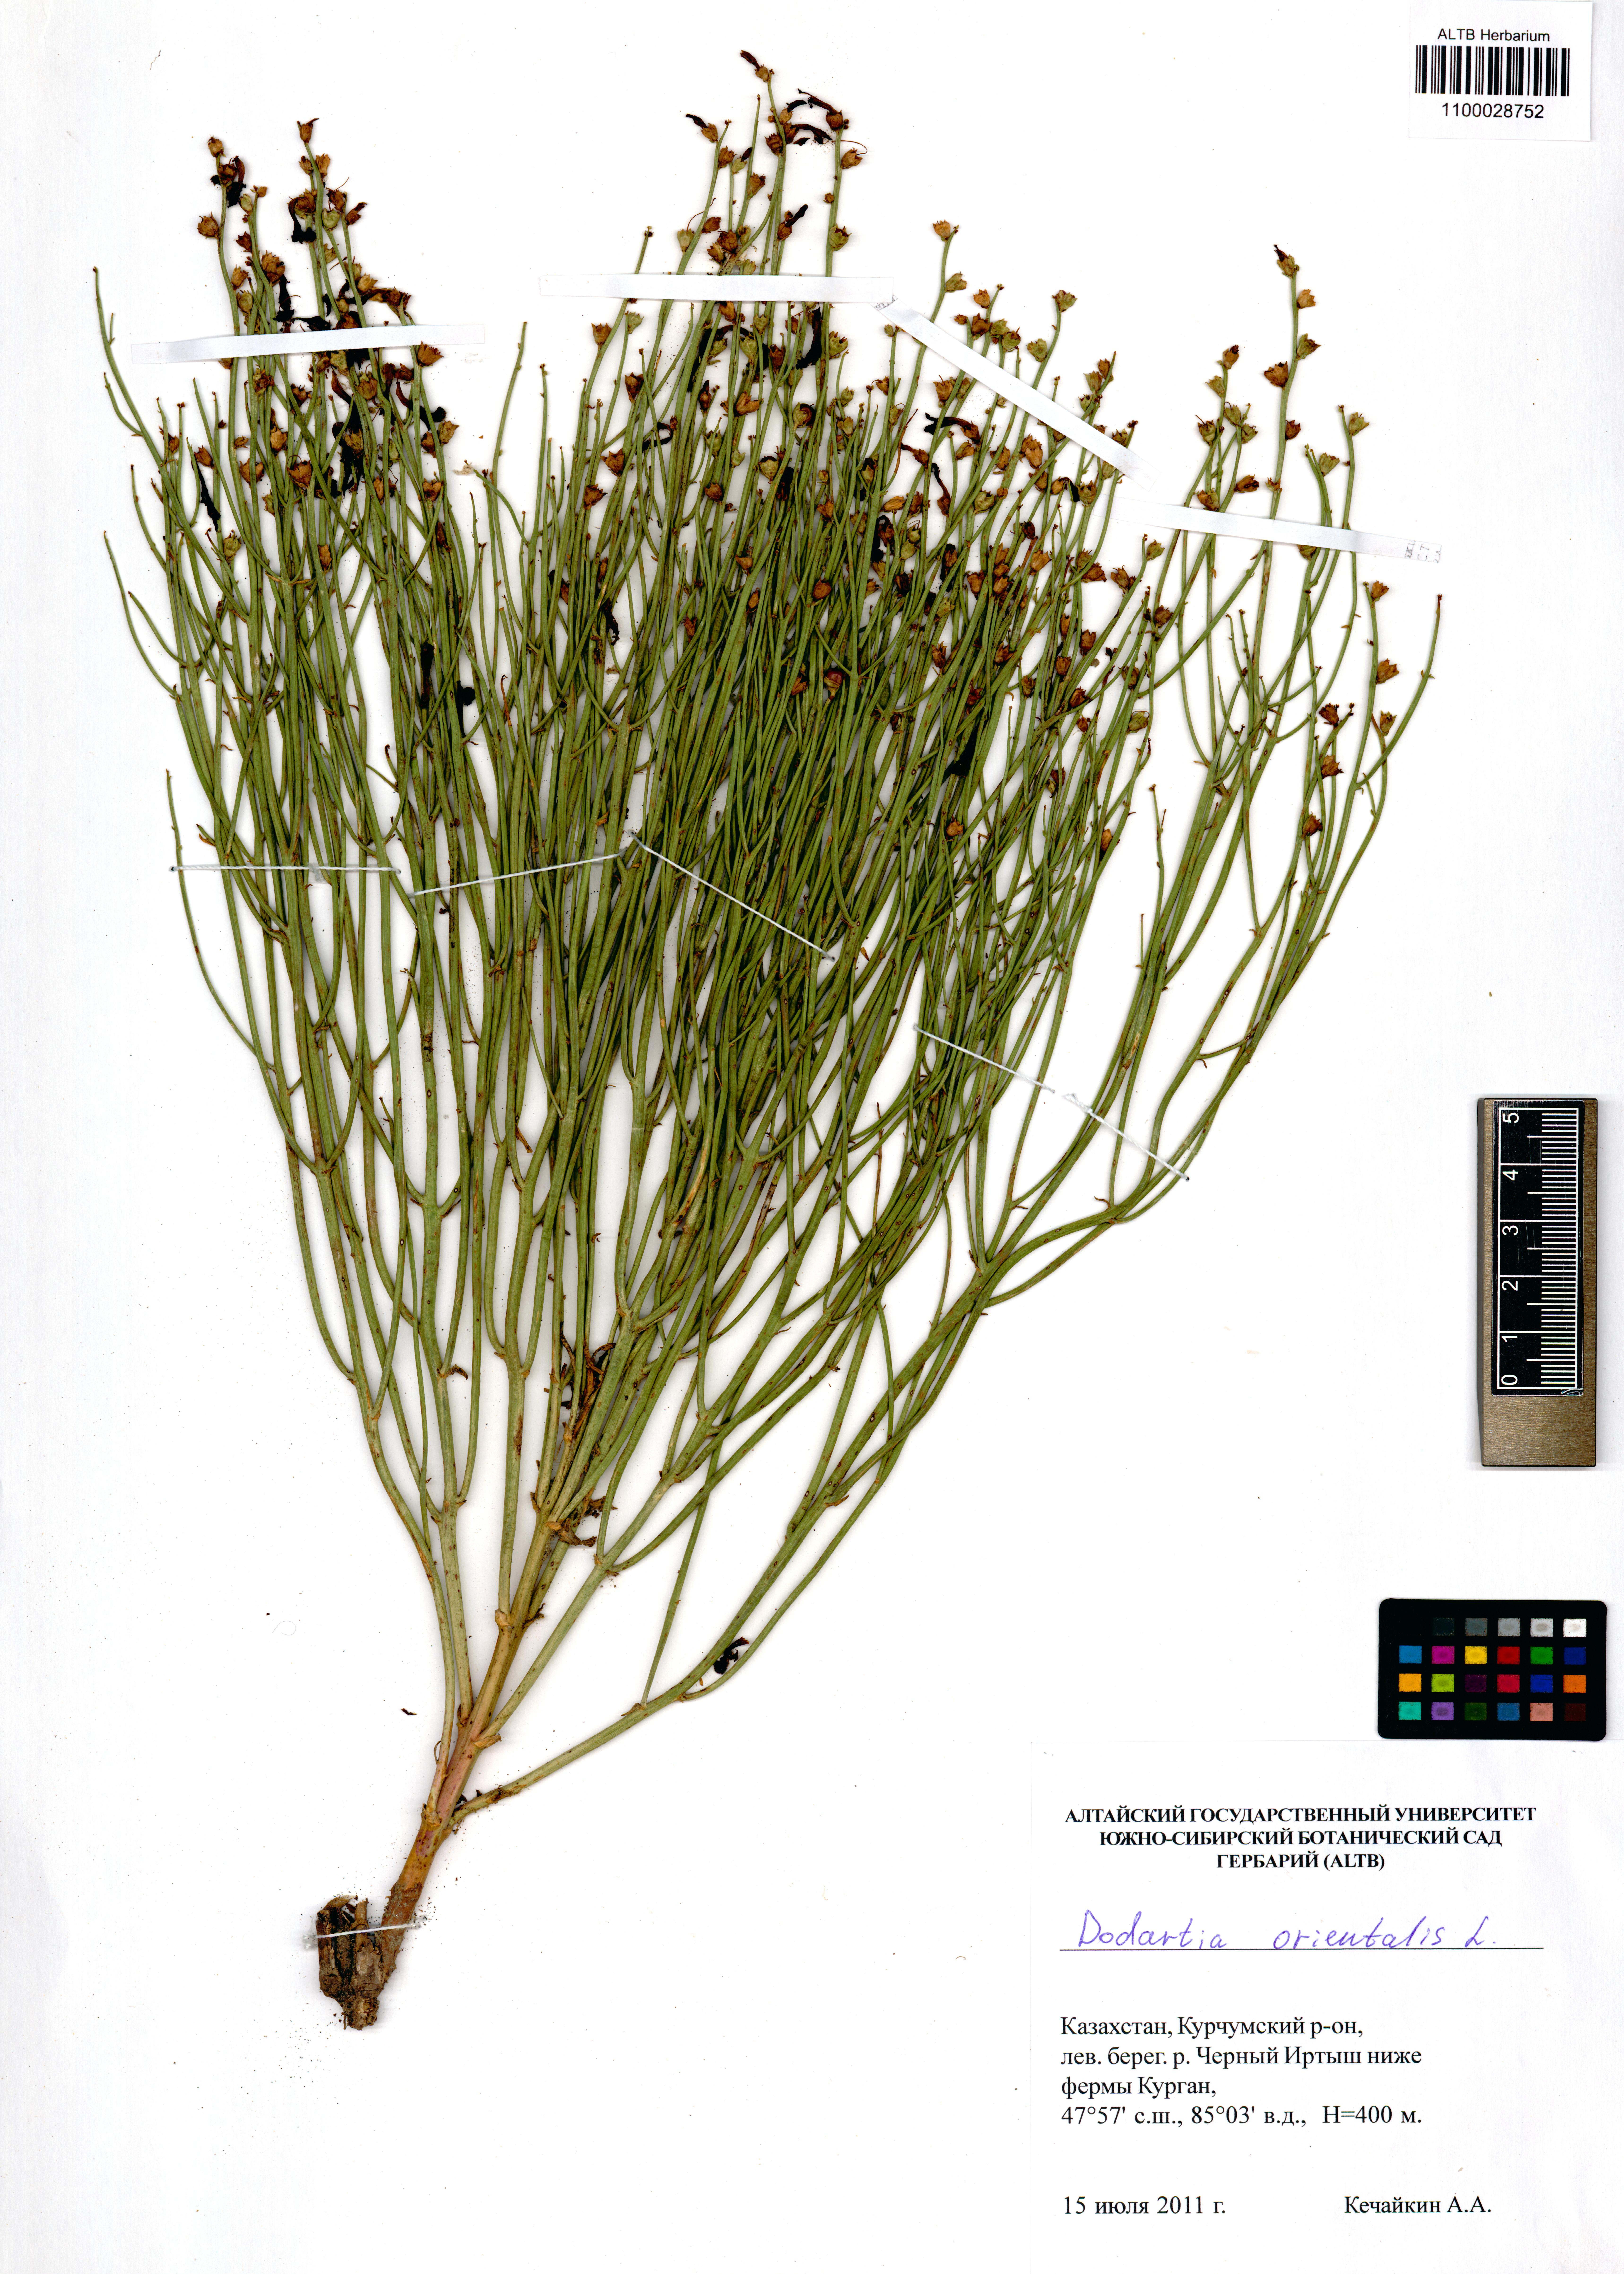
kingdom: Plantae
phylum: Tracheophyta
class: Magnoliopsida
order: Lamiales
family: Mazaceae
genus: Dodartia
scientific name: Dodartia orientalis
